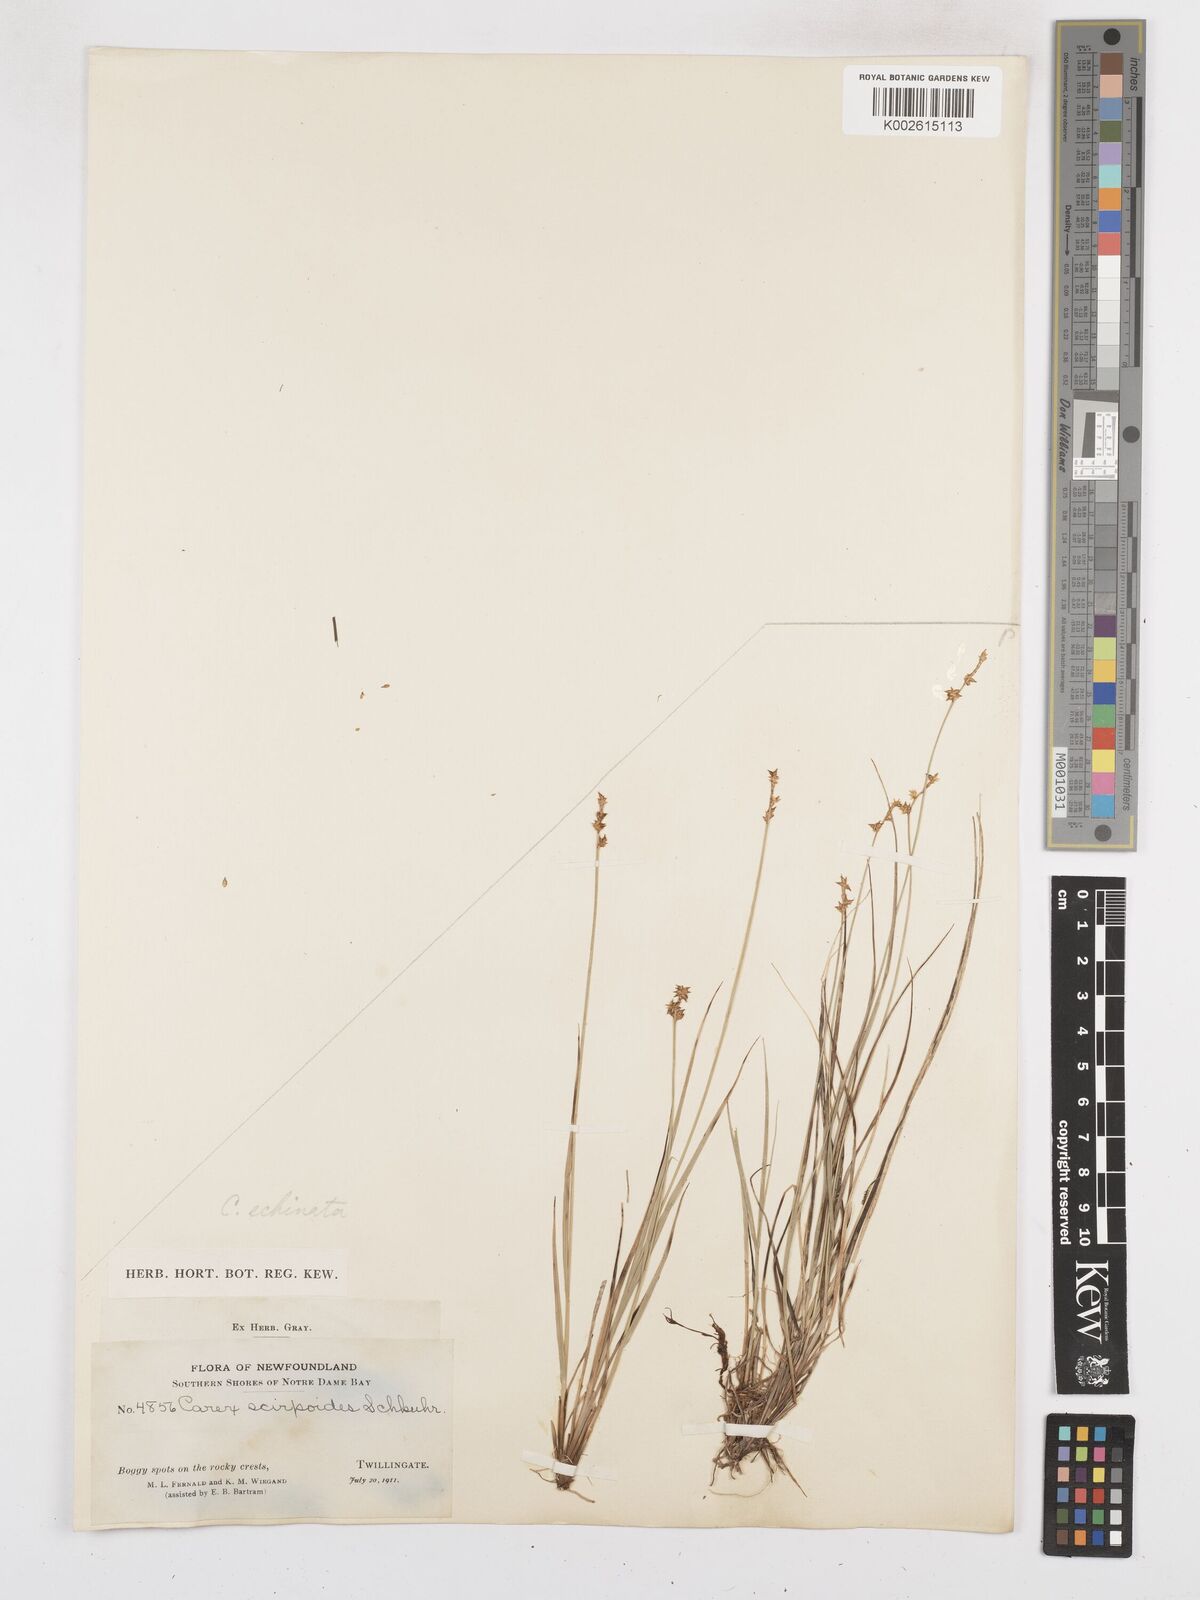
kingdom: Plantae
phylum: Tracheophyta
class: Liliopsida
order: Poales
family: Cyperaceae
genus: Carex
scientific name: Carex echinata
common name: Star sedge
